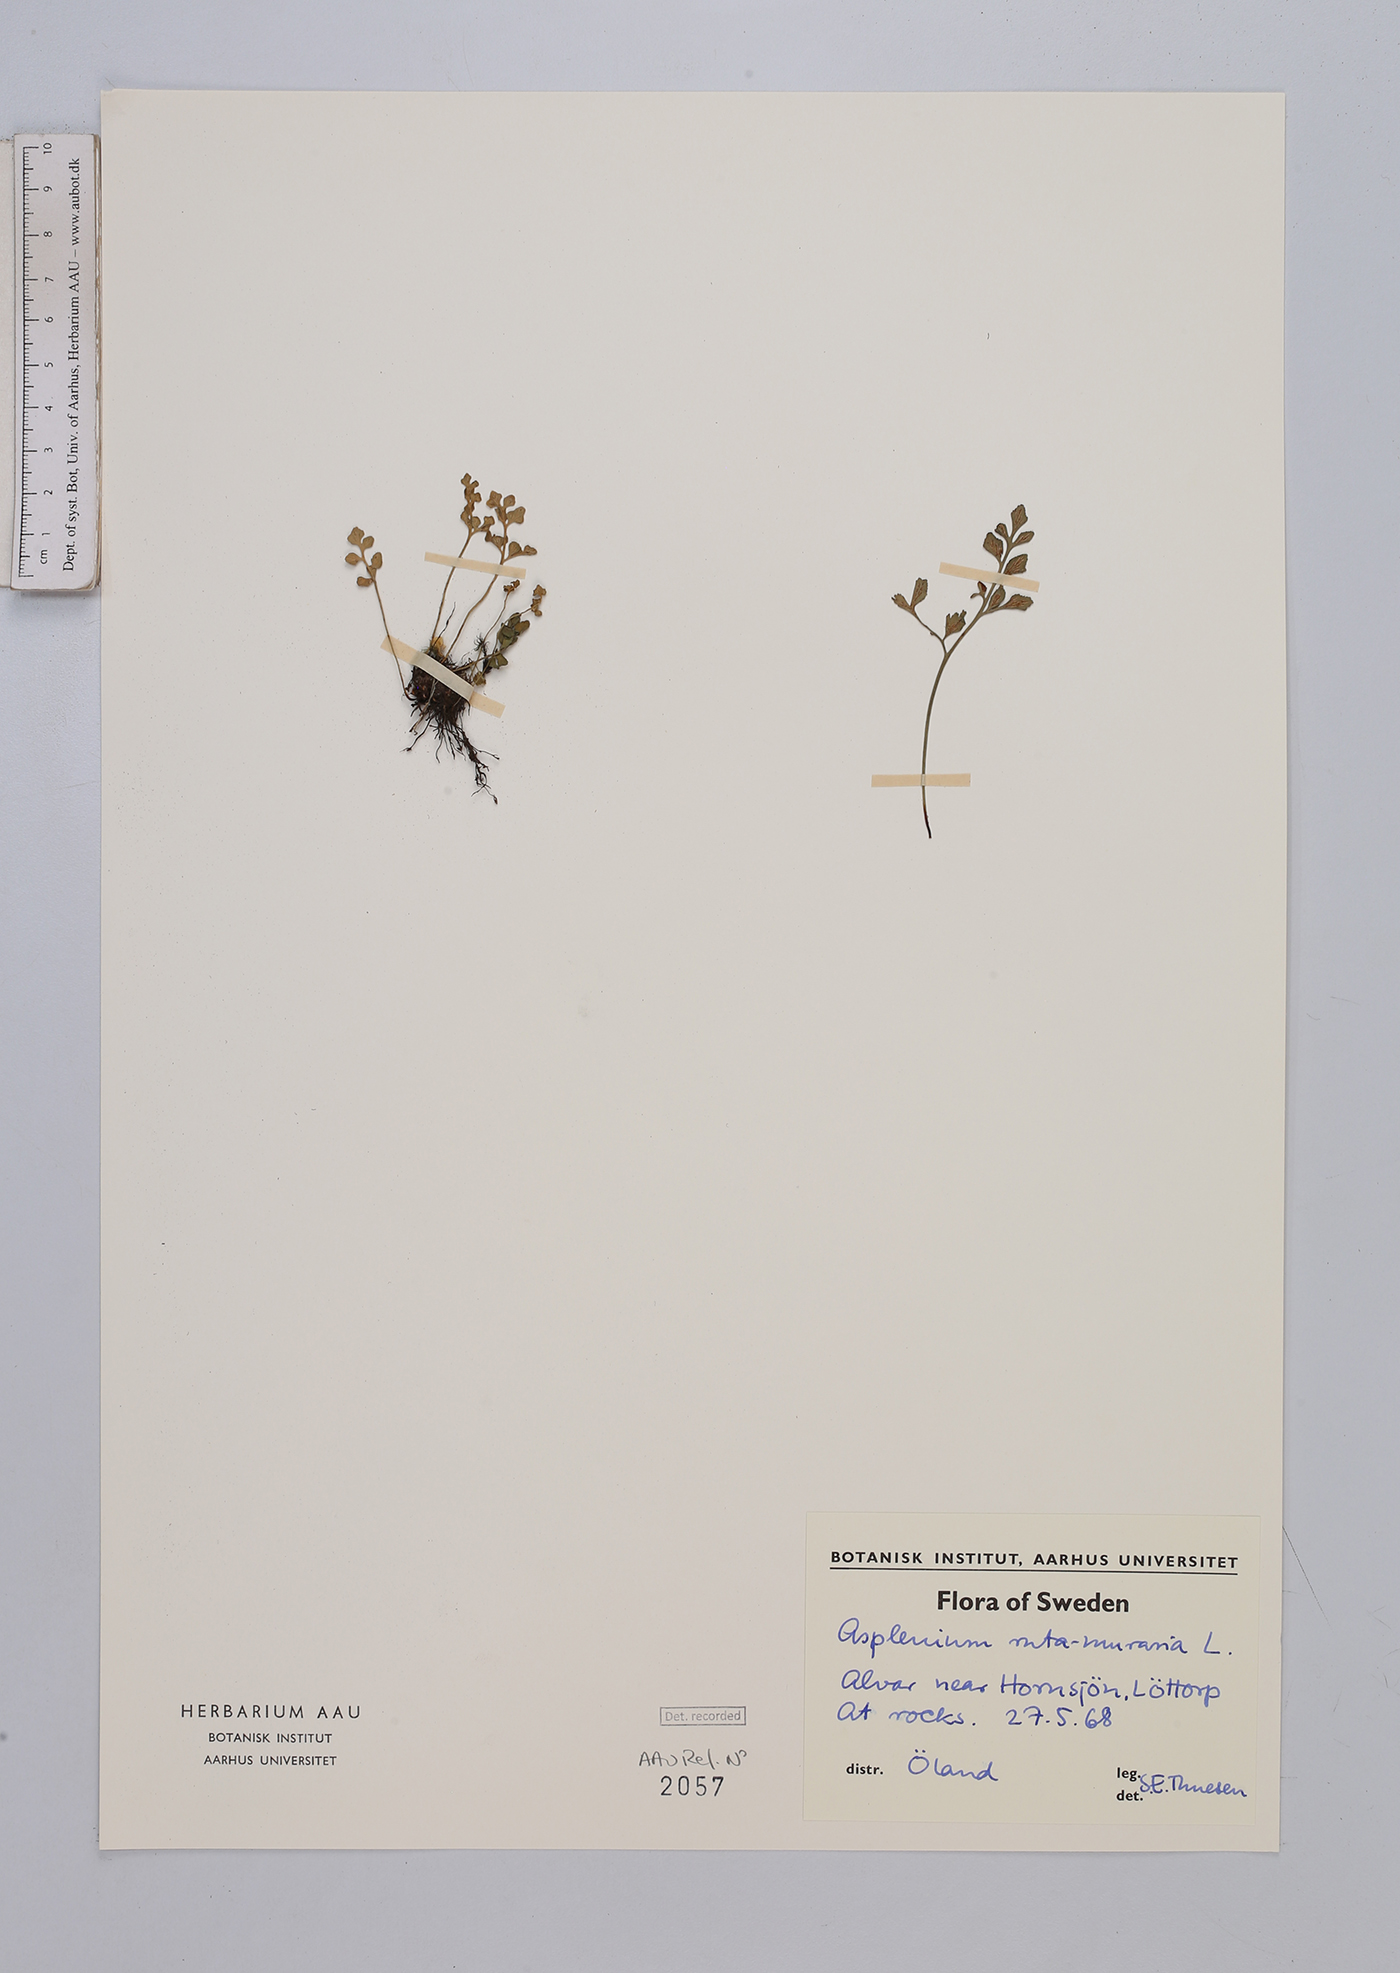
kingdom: Plantae
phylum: Tracheophyta
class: Polypodiopsida
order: Polypodiales
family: Aspleniaceae
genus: Asplenium
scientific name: Asplenium ruta-muraria
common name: Wall-rue
